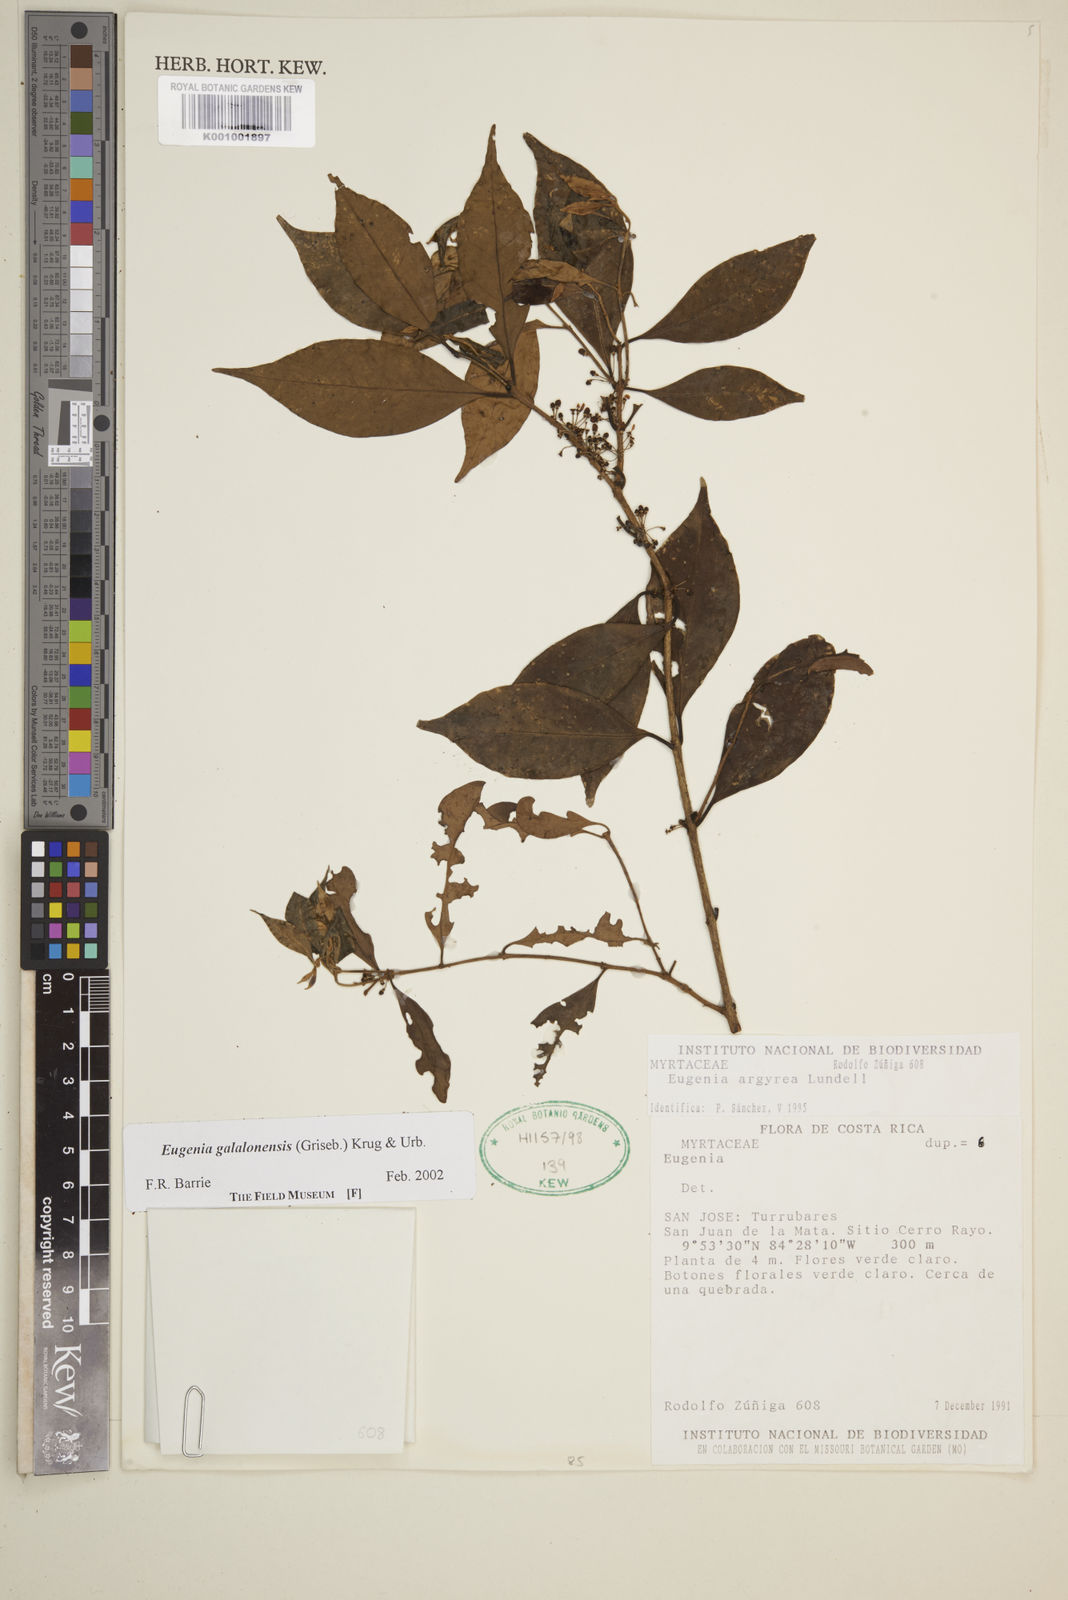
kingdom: Plantae
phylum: Tracheophyta
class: Magnoliopsida
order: Myrtales
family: Myrtaceae
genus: Eugenia
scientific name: Eugenia galalonensis
